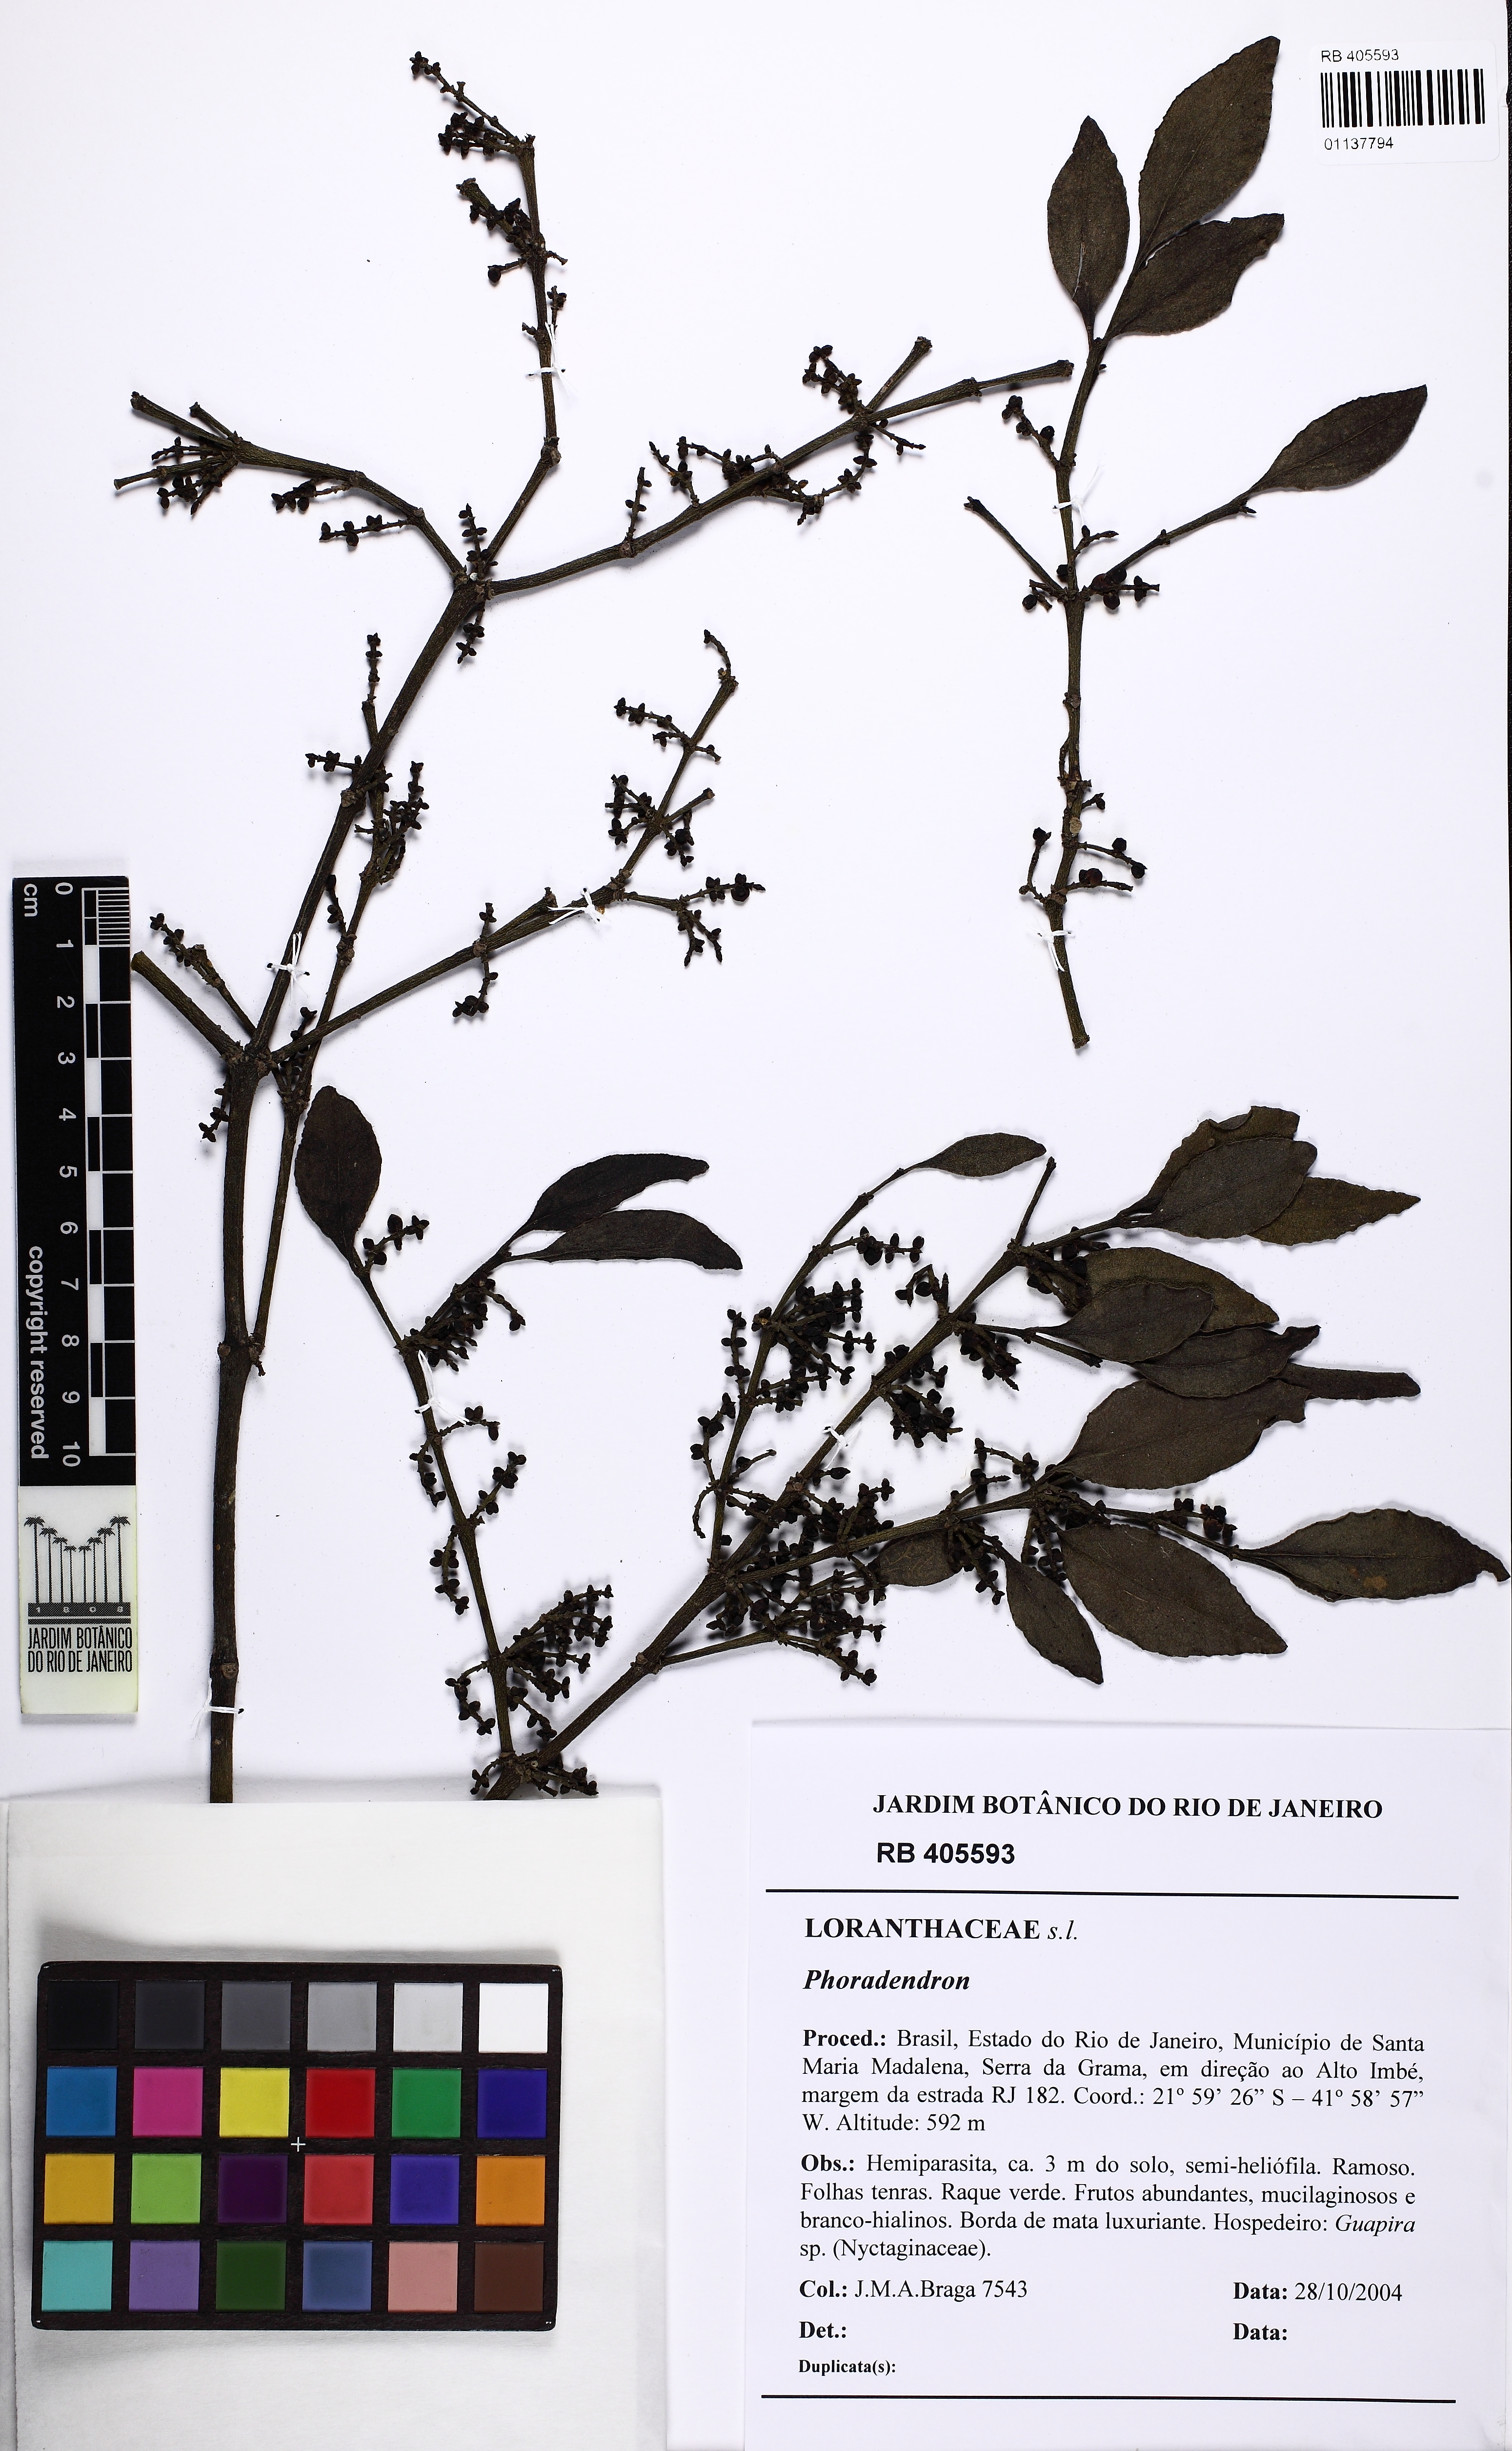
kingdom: Plantae
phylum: Tracheophyta
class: Magnoliopsida
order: Santalales
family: Viscaceae
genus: Phoradendron
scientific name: Phoradendron nigricans
